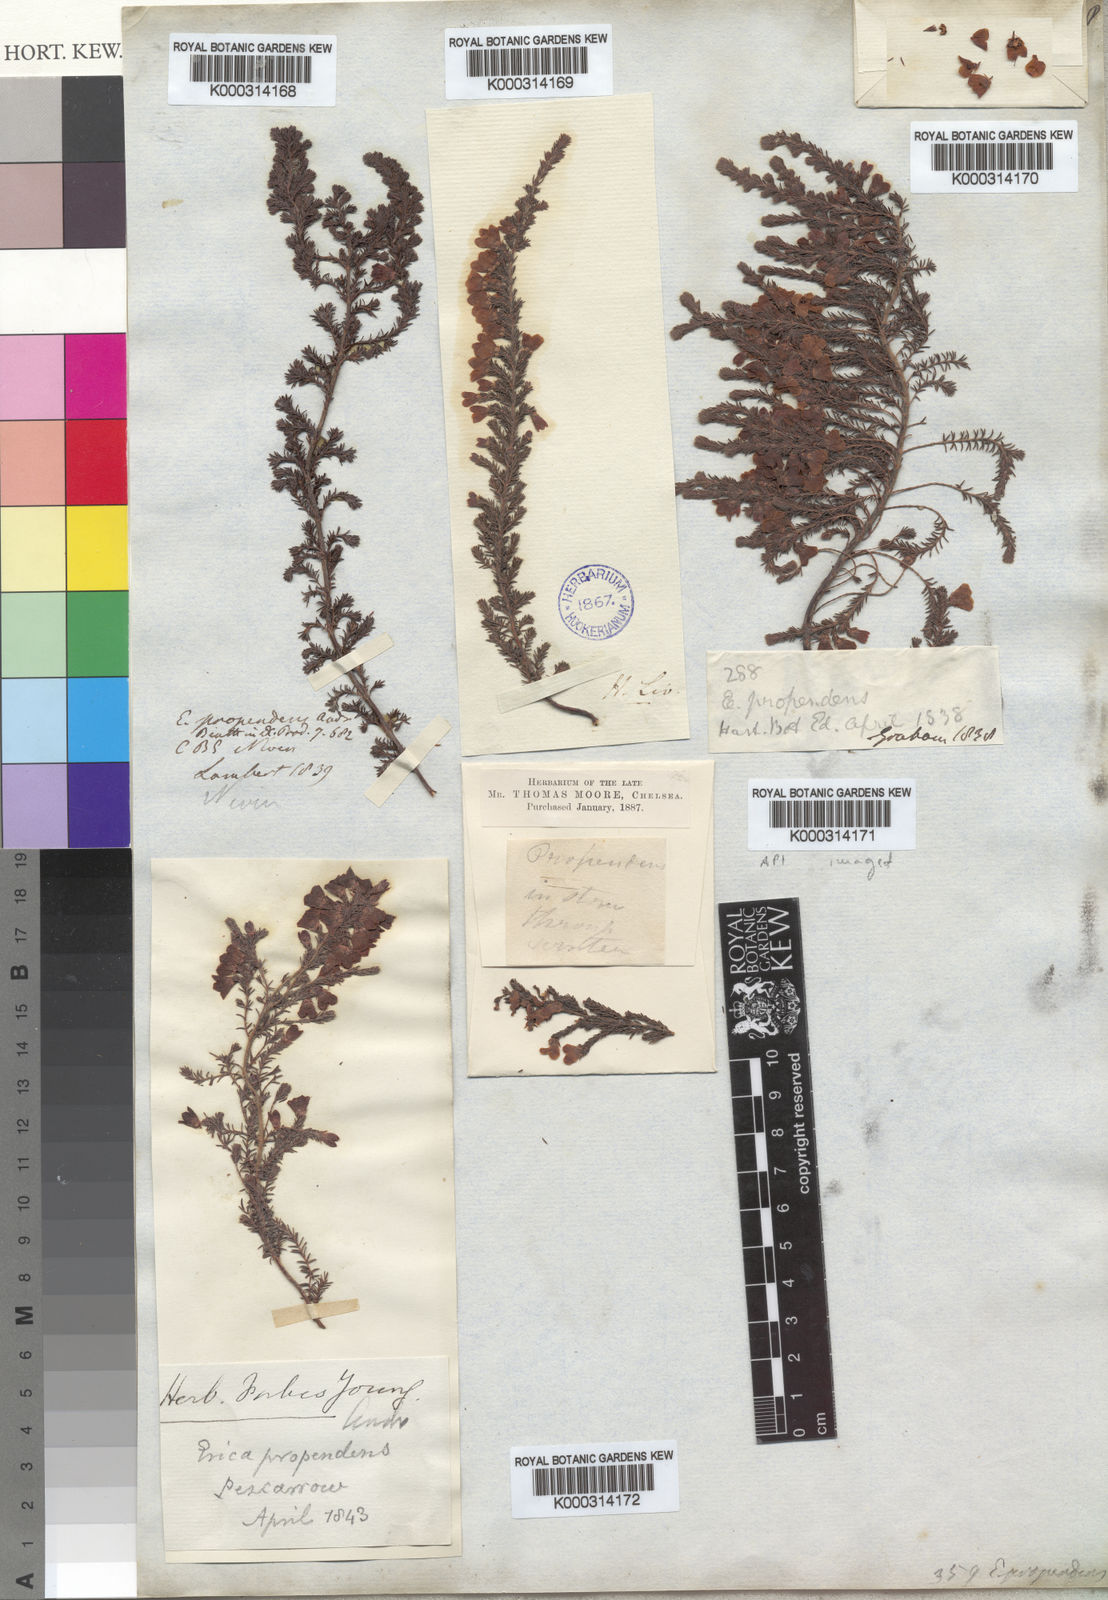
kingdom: Plantae
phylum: Tracheophyta
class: Magnoliopsida
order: Ericales
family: Ericaceae
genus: Erica
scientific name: Erica propendens
